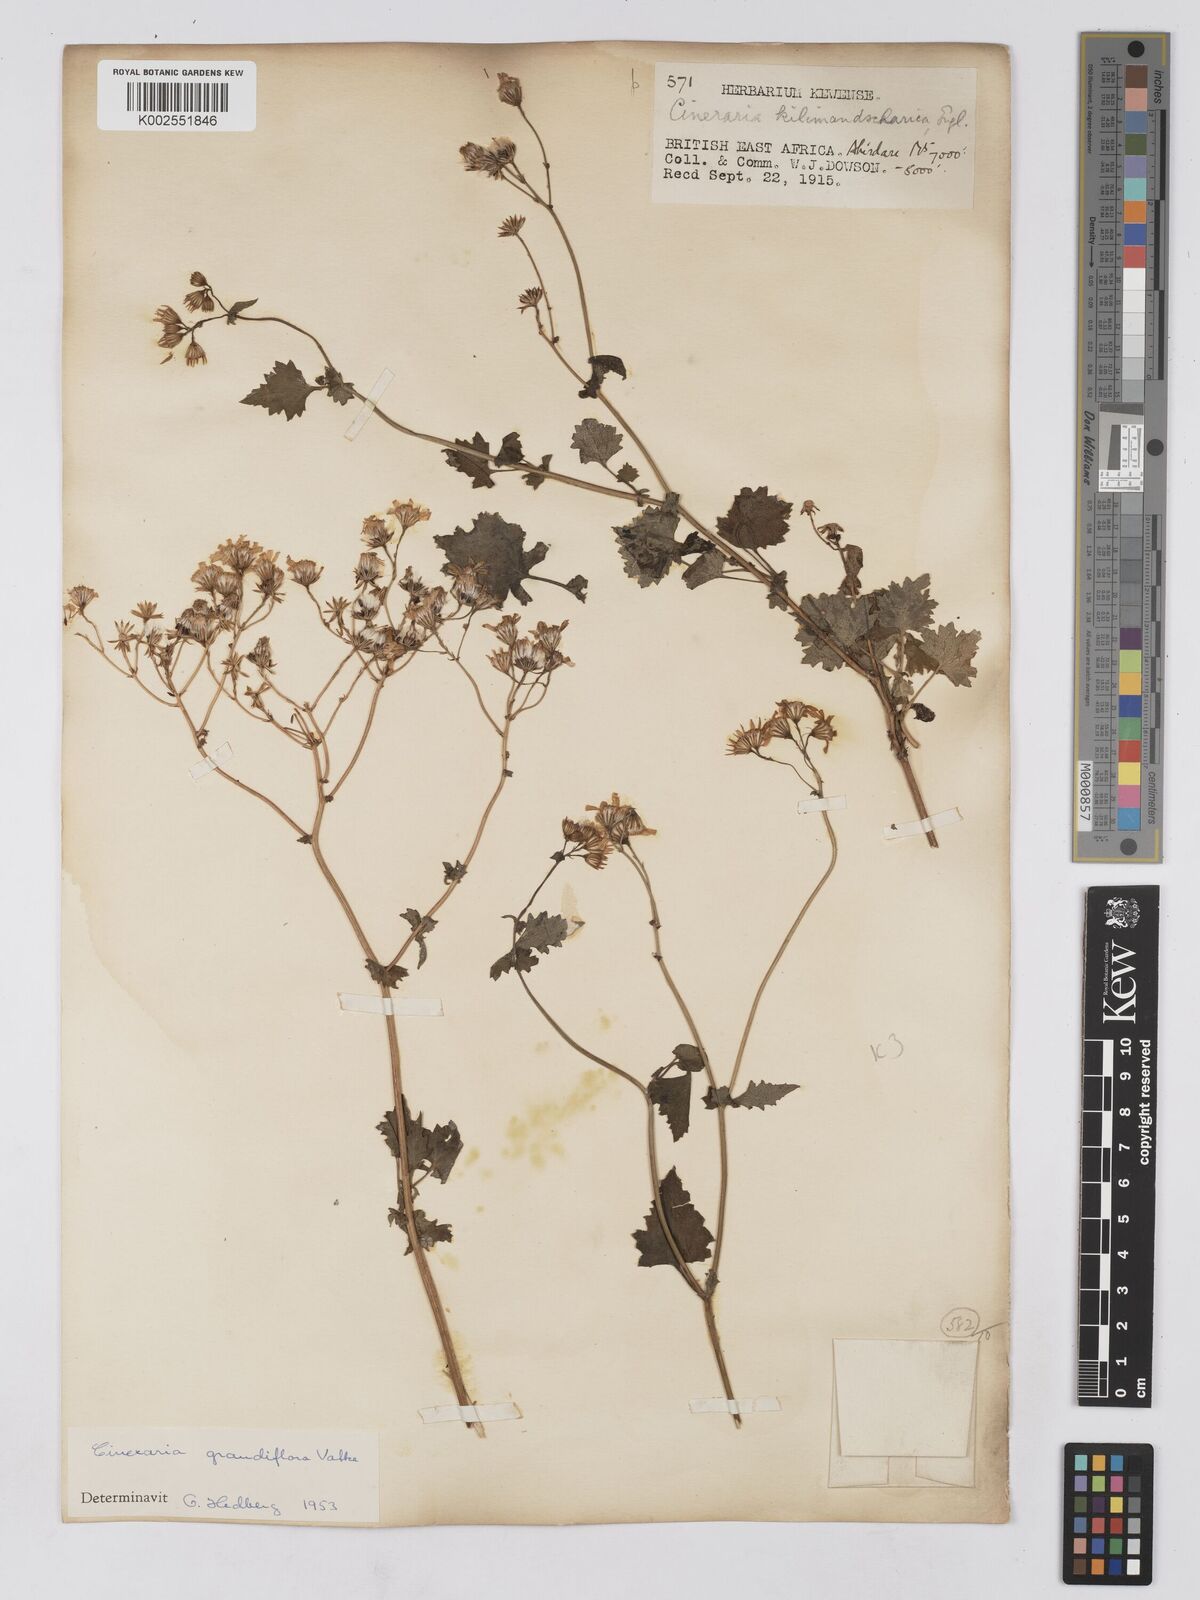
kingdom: Plantae
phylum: Tracheophyta
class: Magnoliopsida
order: Asterales
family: Asteraceae
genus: Cineraria
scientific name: Cineraria deltoidea
